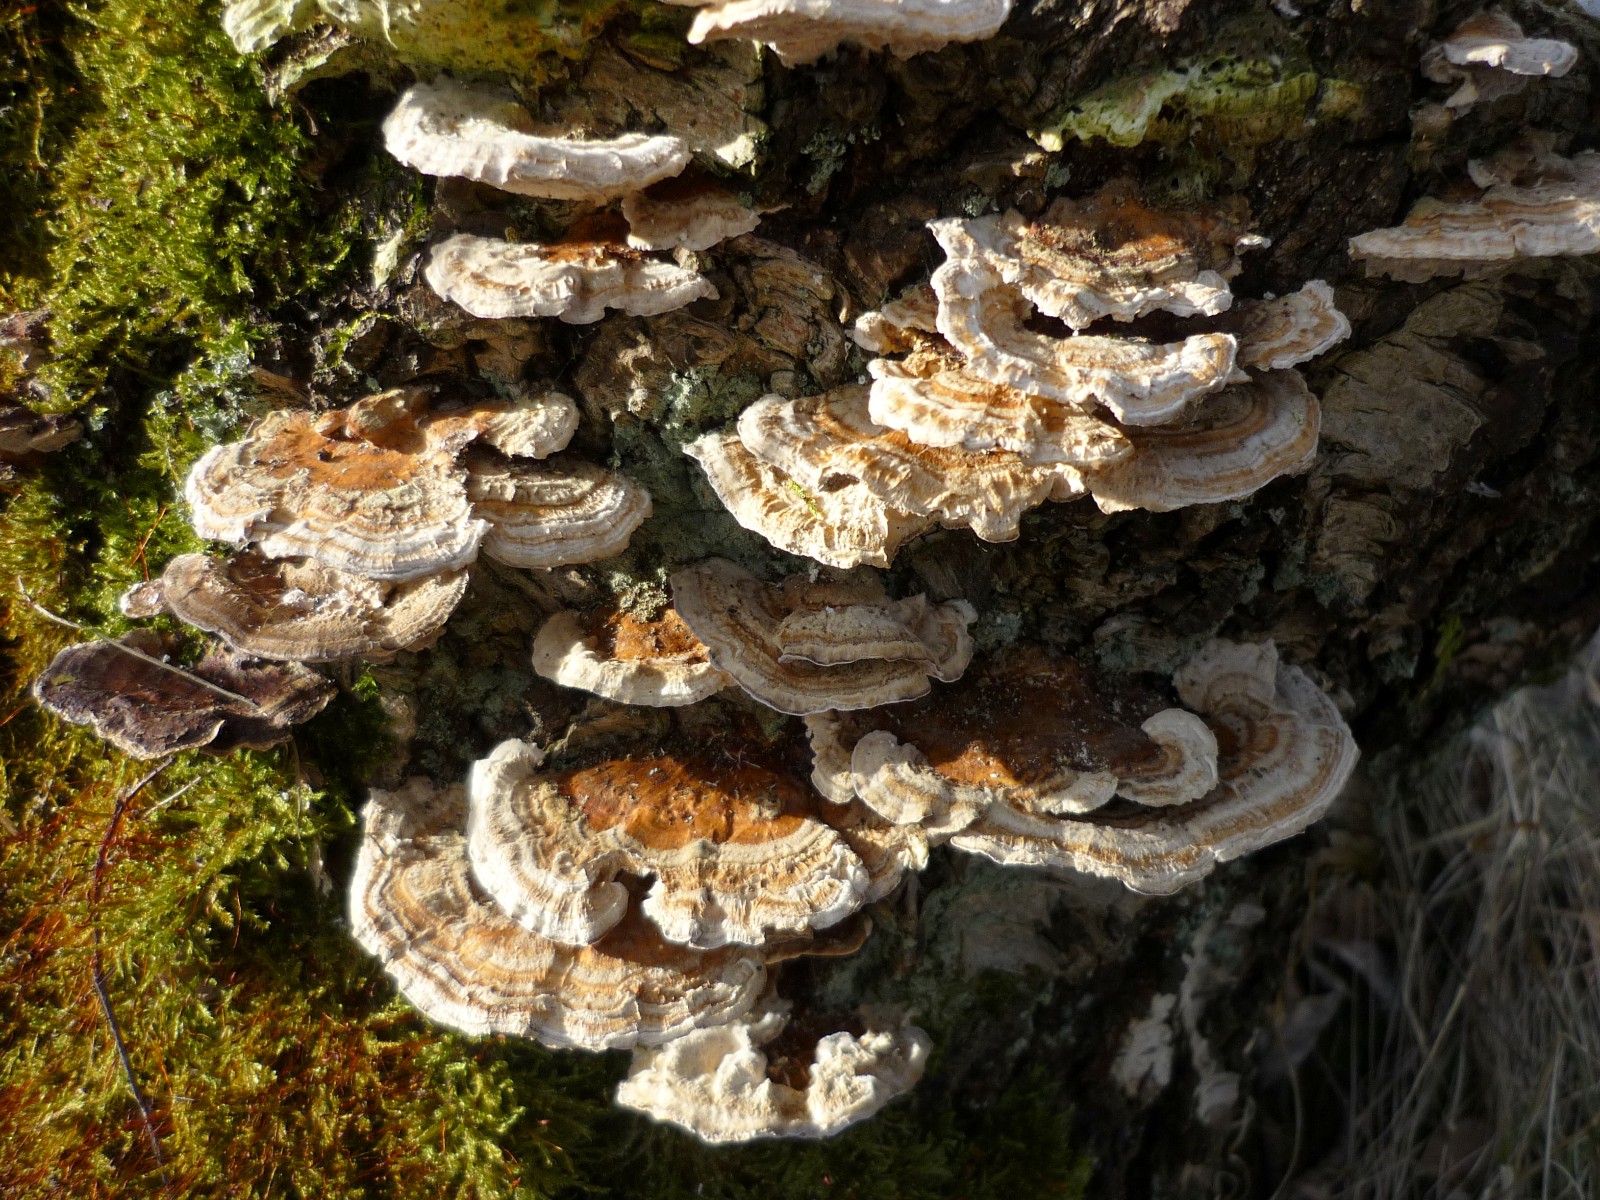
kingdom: Fungi
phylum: Basidiomycota
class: Agaricomycetes
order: Polyporales
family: Polyporaceae
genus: Trametes
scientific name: Trametes ochracea
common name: bæltet læderporesvamp
